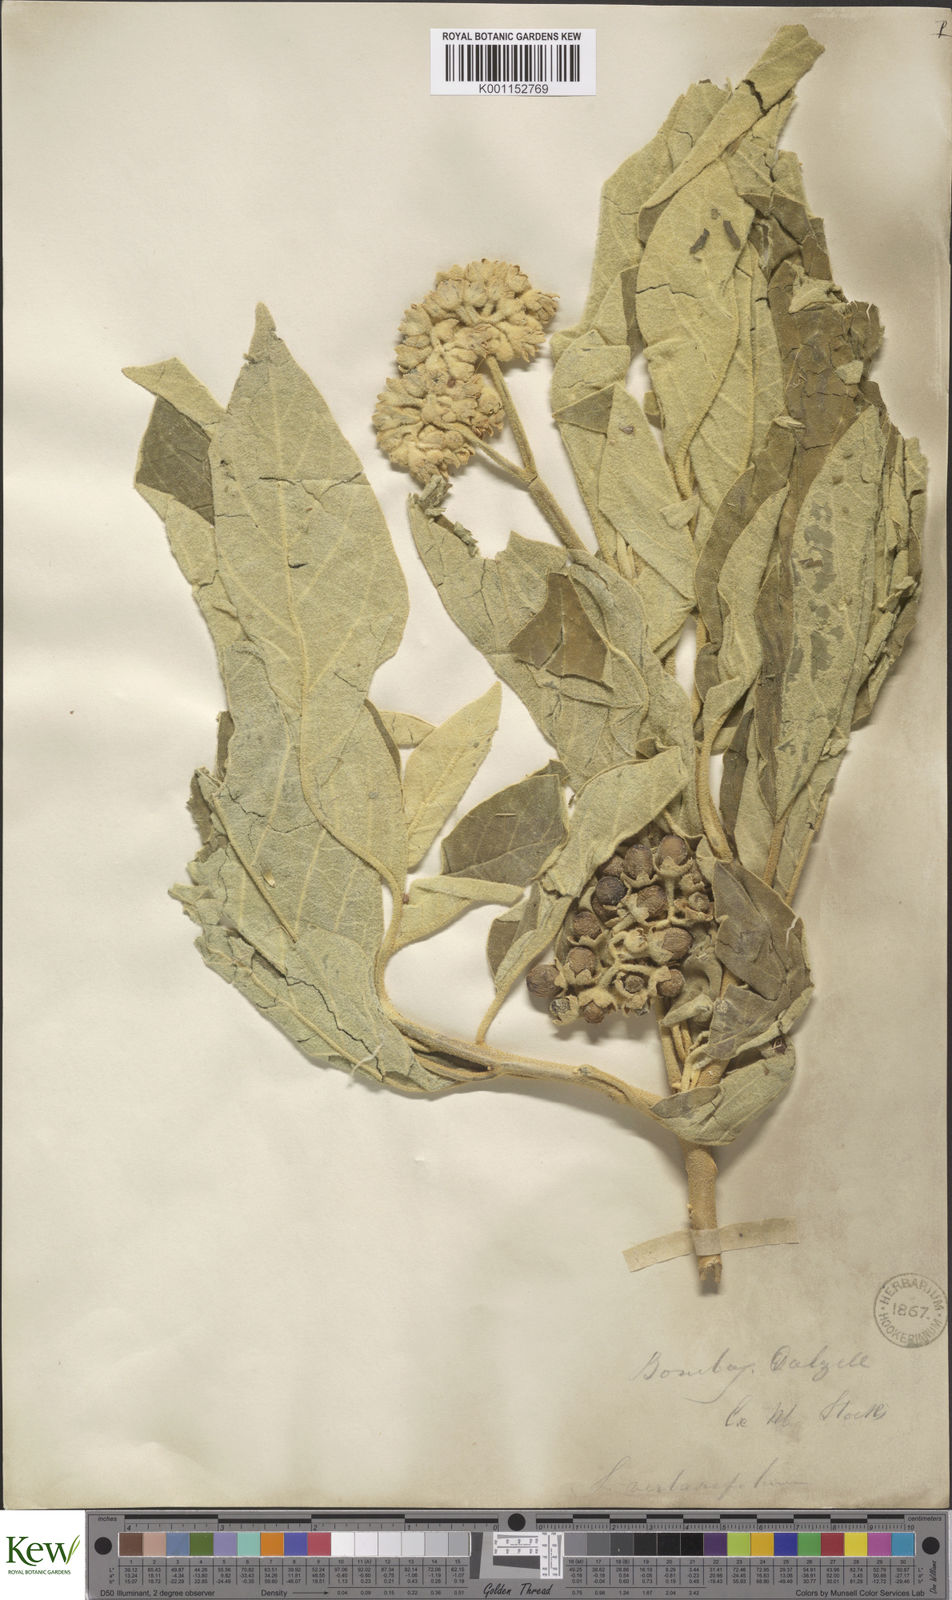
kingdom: Plantae
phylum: Tracheophyta
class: Magnoliopsida
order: Solanales
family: Solanaceae
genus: Solanum
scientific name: Solanum erianthum
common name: Tobacco-tree
